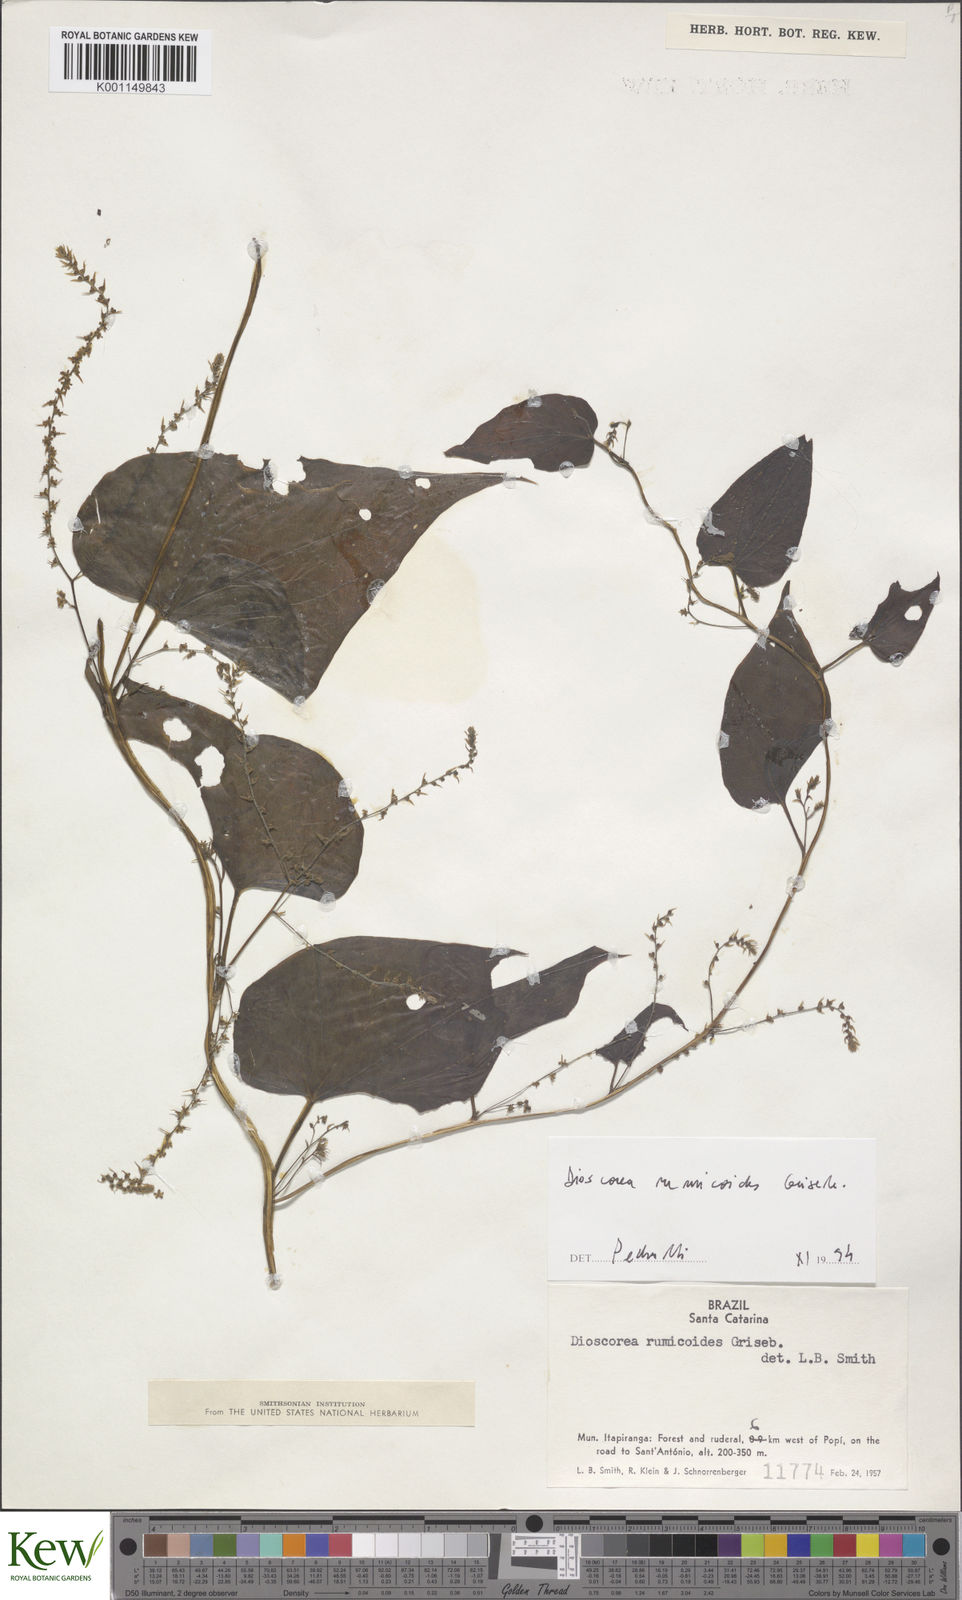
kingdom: Plantae
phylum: Tracheophyta
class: Liliopsida
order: Dioscoreales
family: Dioscoreaceae
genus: Dioscorea
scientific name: Dioscorea rumicoides
